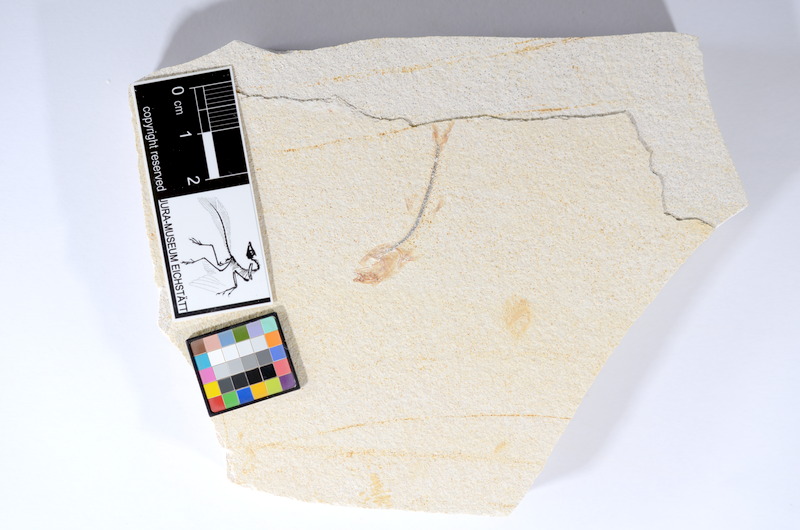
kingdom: Animalia
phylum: Chordata
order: Salmoniformes
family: Orthogonikleithridae
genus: Orthogonikleithrus
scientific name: Orthogonikleithrus hoelli
